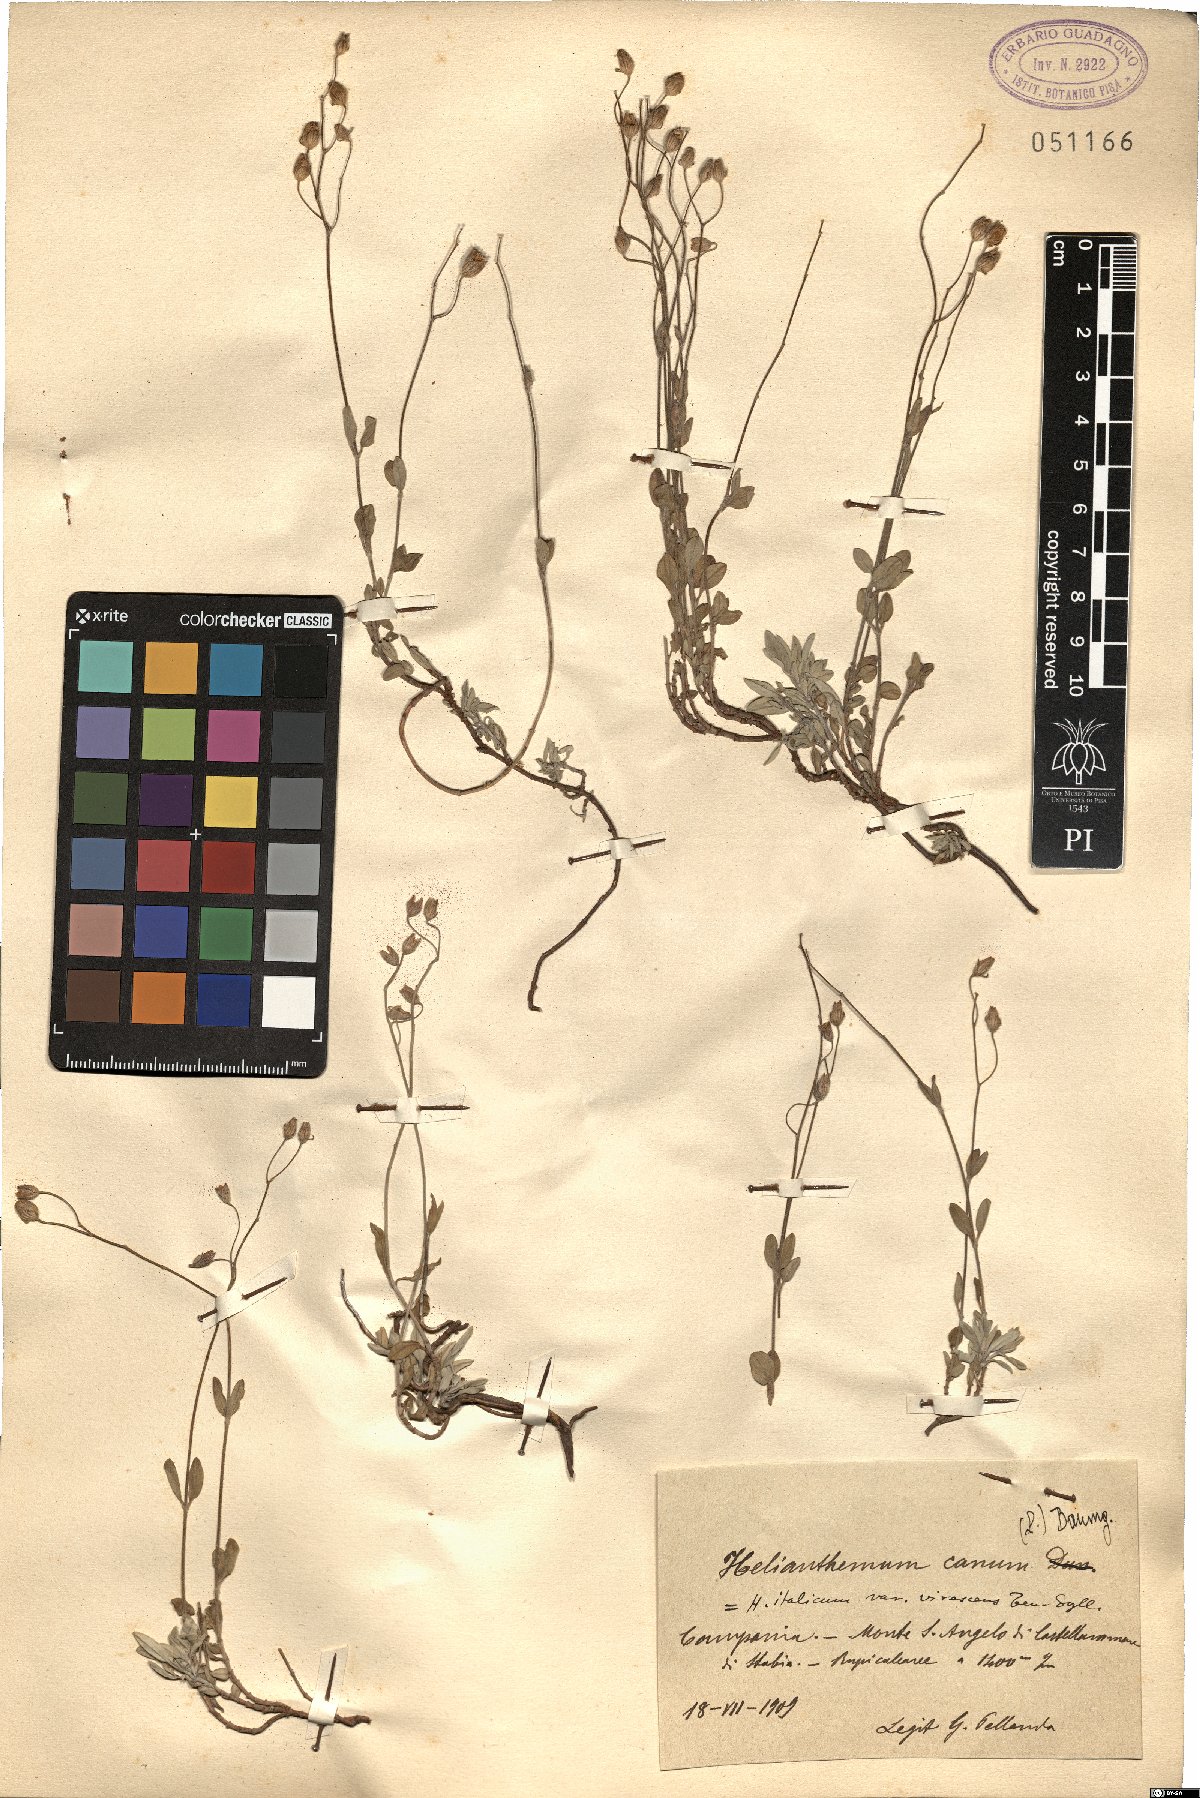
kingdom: Plantae
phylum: Tracheophyta
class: Magnoliopsida
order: Malvales
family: Cistaceae
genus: Helianthemum
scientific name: Helianthemum canum
